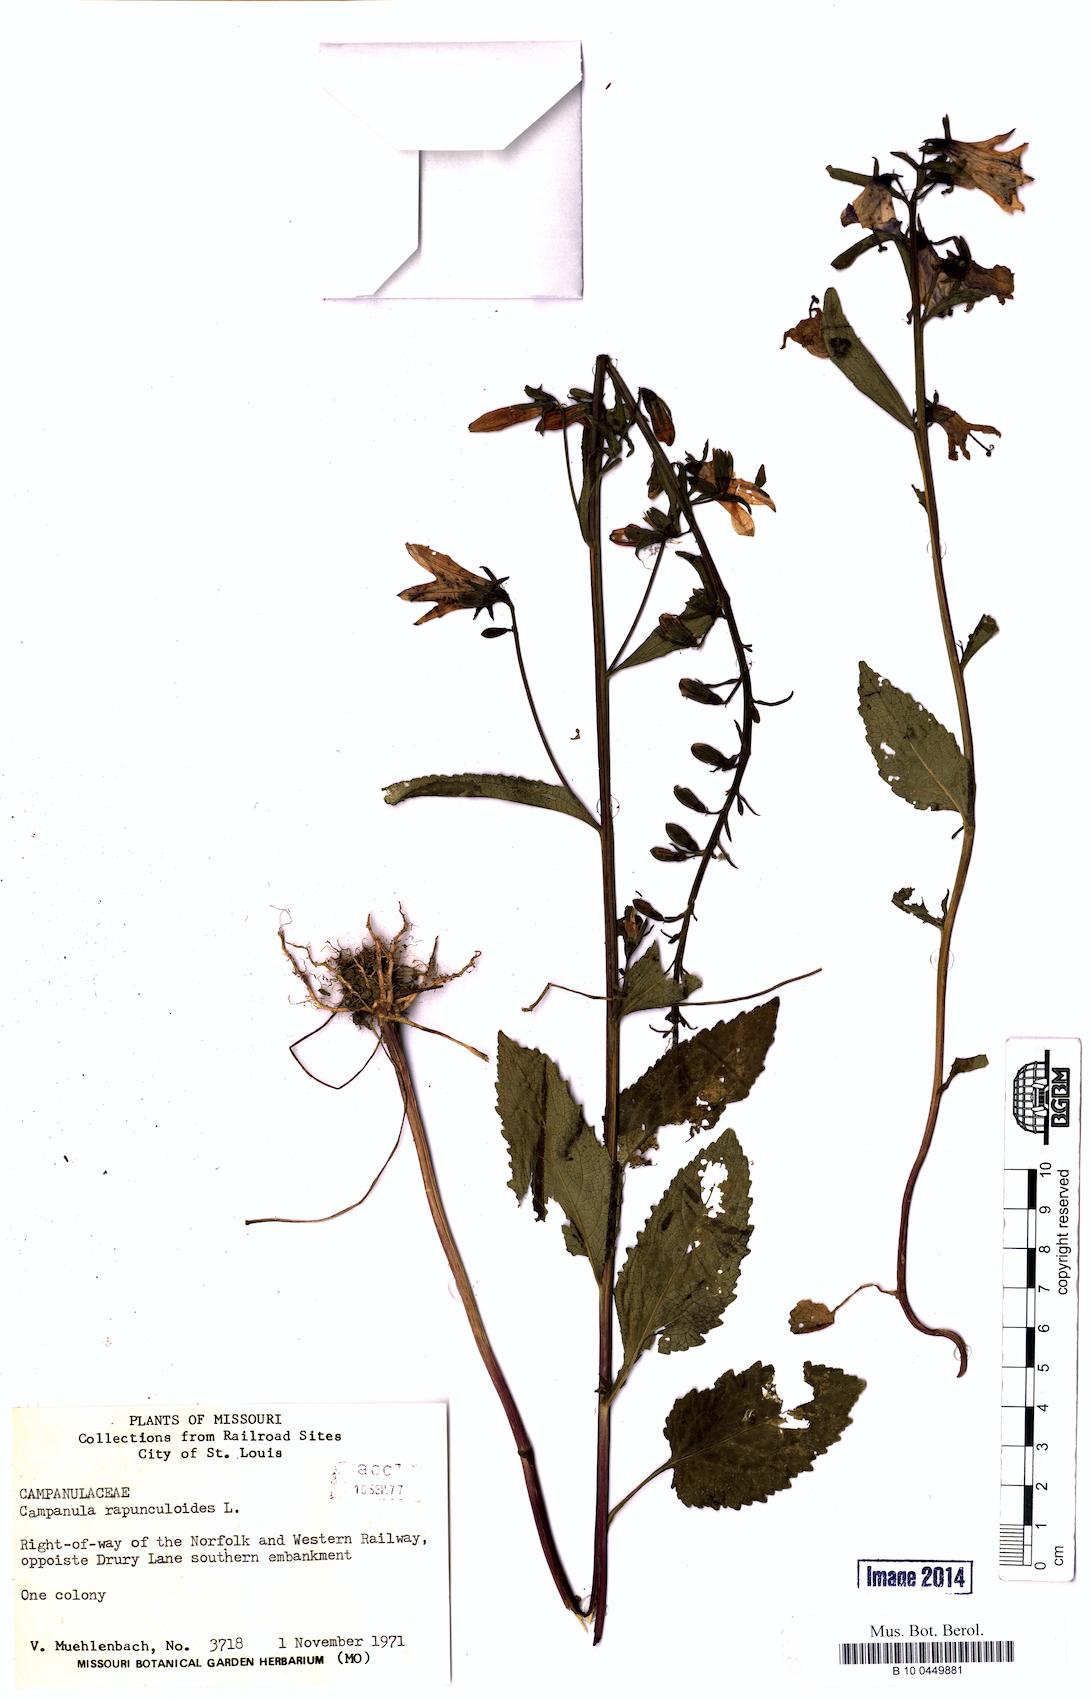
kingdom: Plantae
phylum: Tracheophyta
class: Magnoliopsida
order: Asterales
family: Campanulaceae
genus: Campanula
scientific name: Campanula rapunculoides
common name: Creeping bellflower
